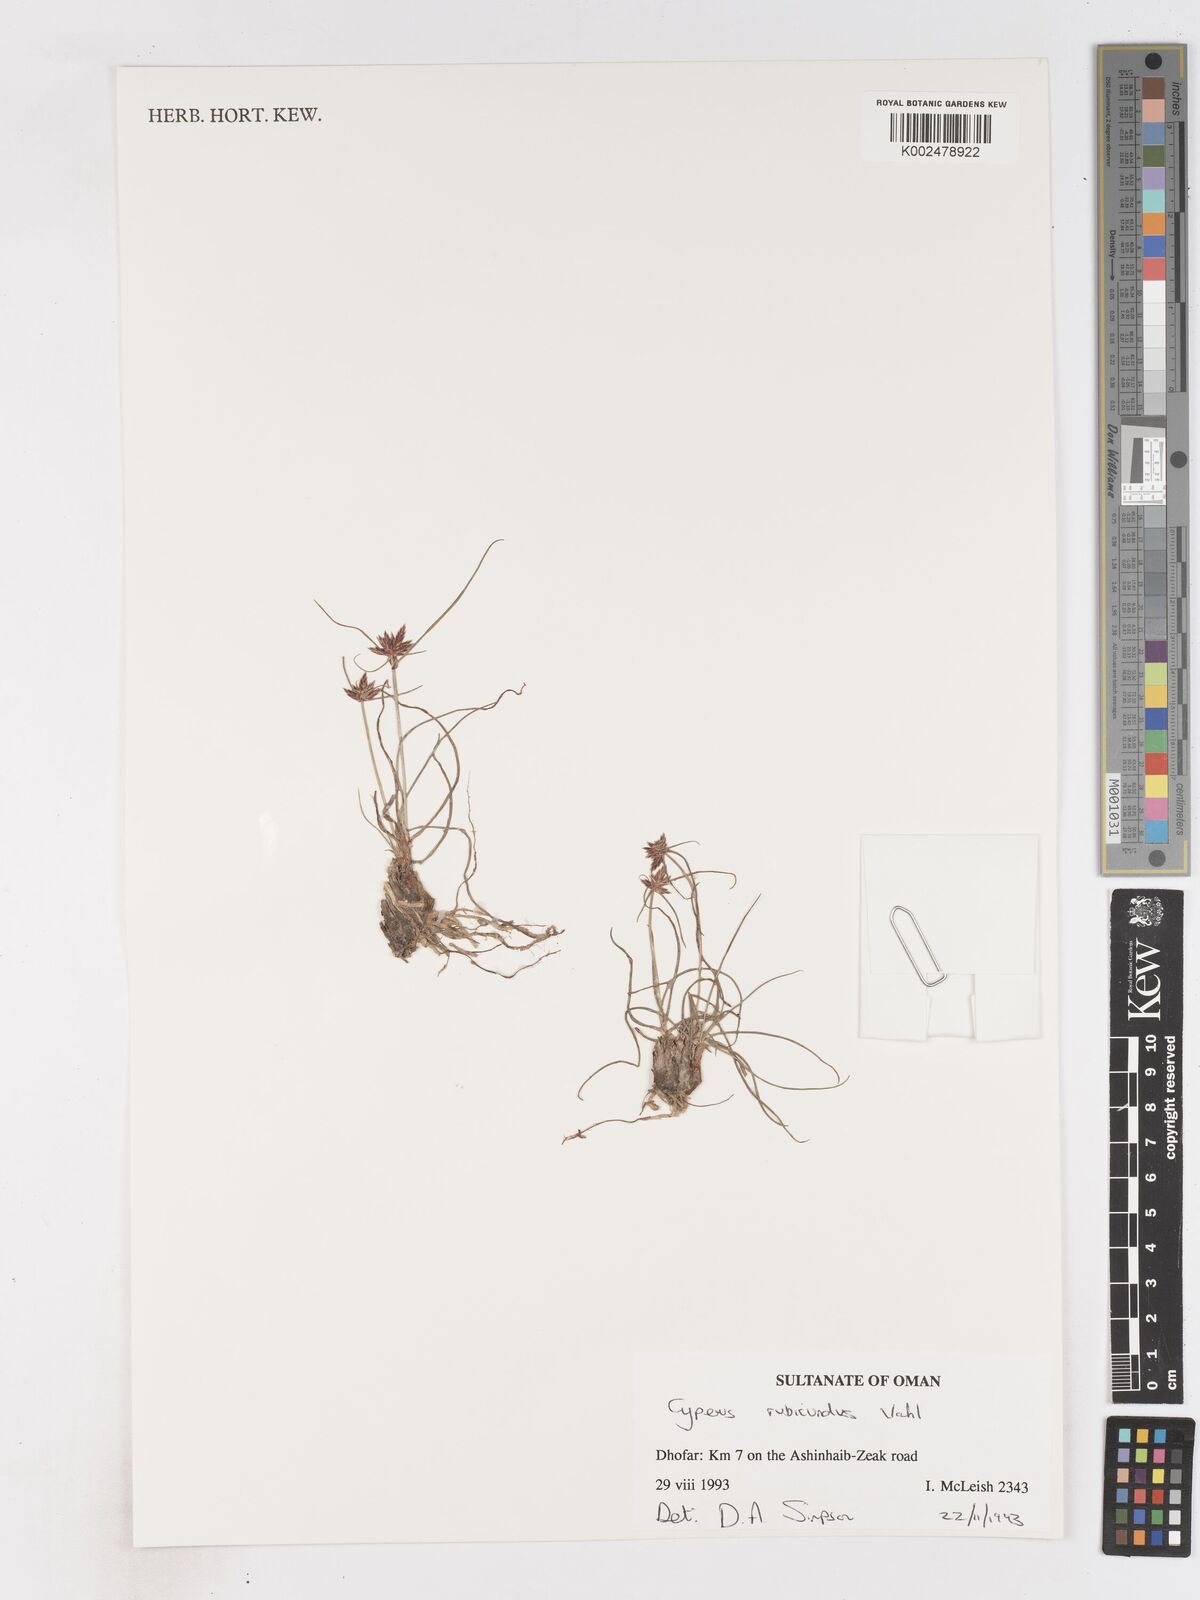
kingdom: Plantae
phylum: Tracheophyta
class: Liliopsida
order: Poales
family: Cyperaceae
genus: Cyperus
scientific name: Cyperus wissmannii
